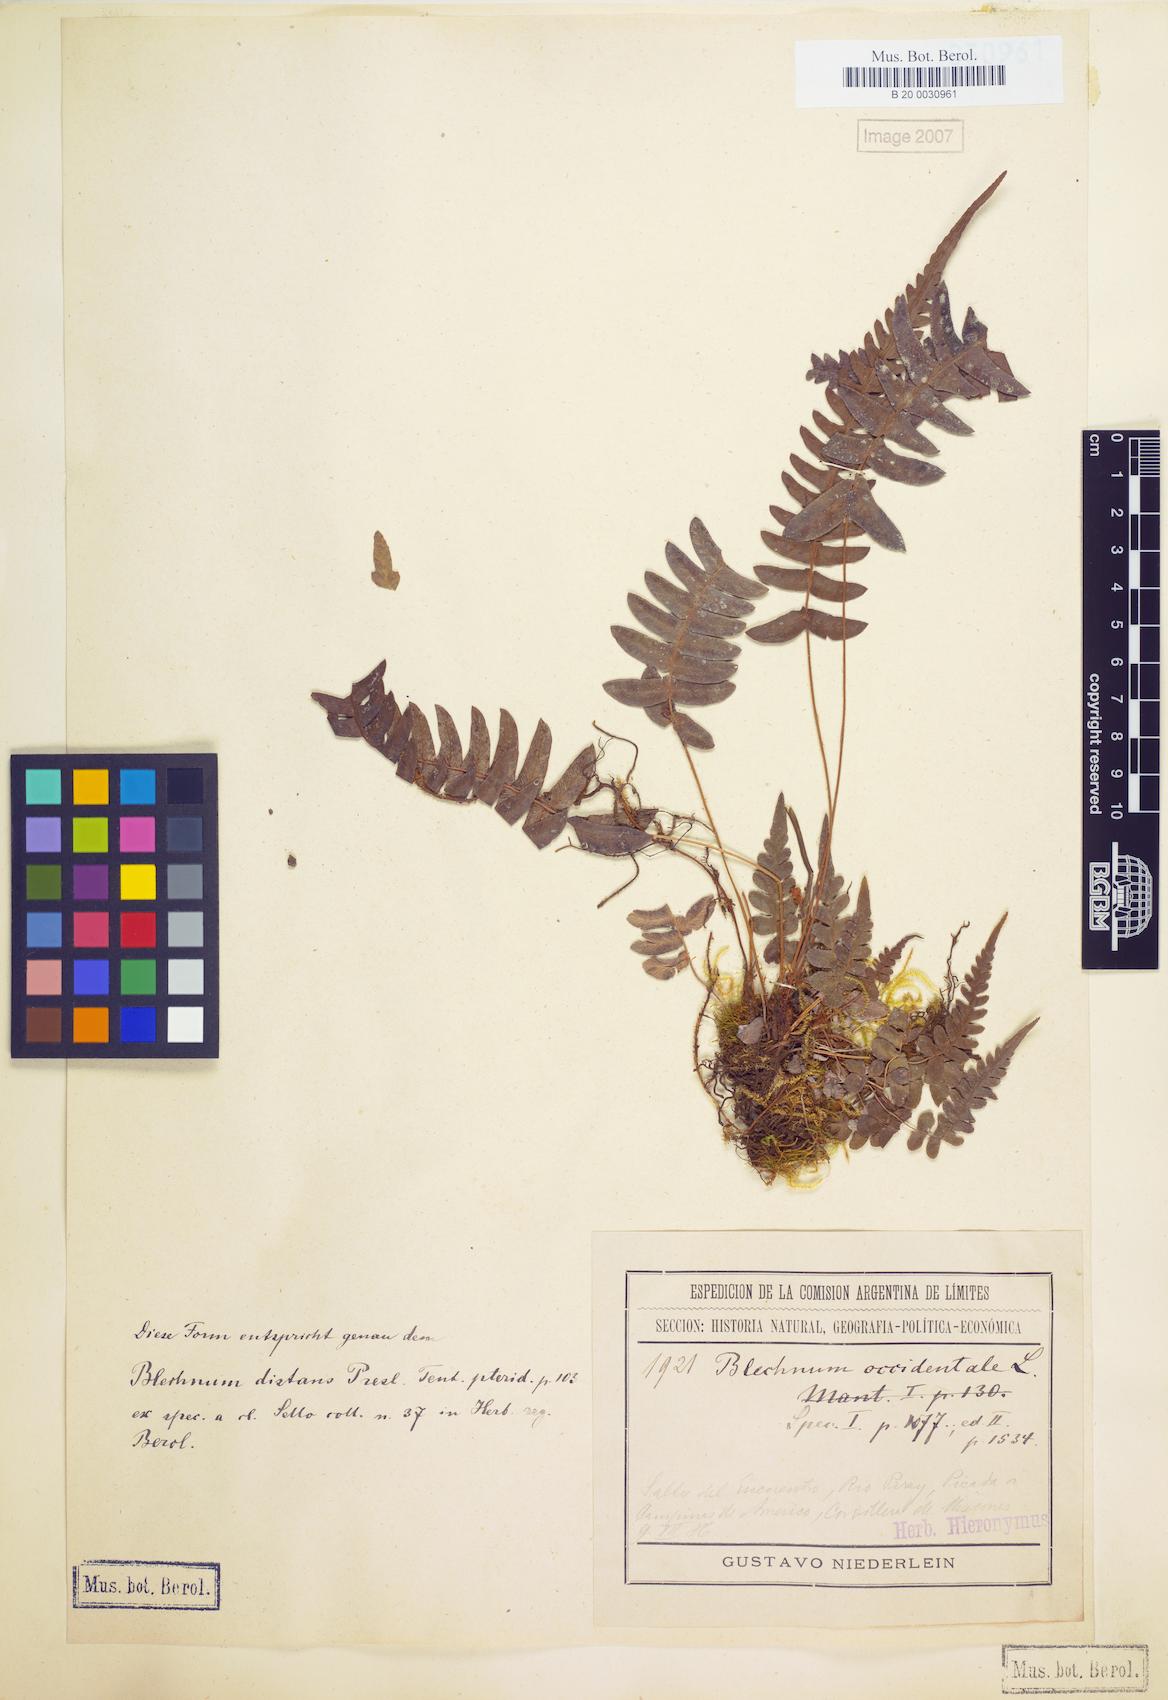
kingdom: Plantae
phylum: Tracheophyta
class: Polypodiopsida
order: Polypodiales
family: Blechnaceae
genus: Blechnum
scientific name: Blechnum laevigatum
